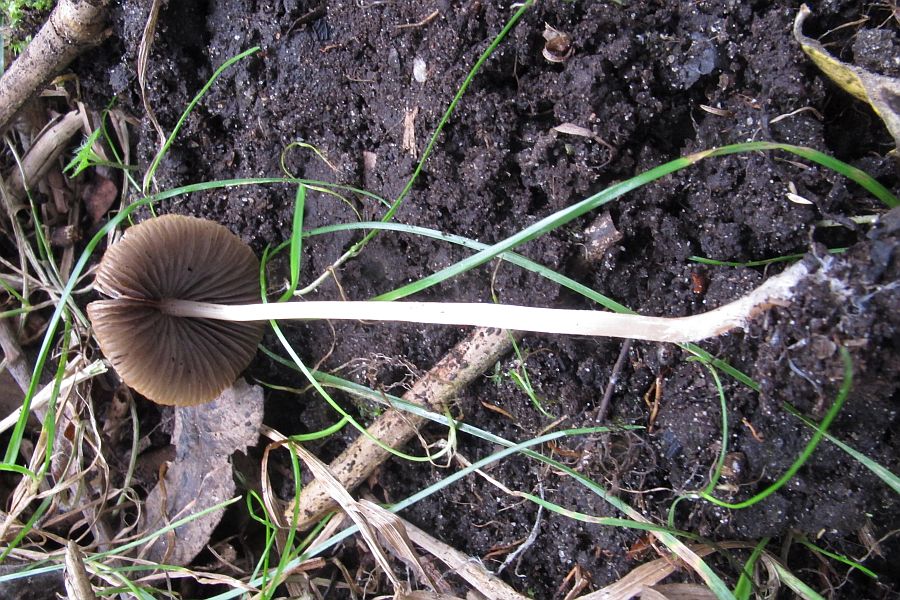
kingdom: Fungi
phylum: Basidiomycota
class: Agaricomycetes
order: Agaricales
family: Psathyrellaceae
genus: Psathyrella
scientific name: Psathyrella corrugis
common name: rødægget mørkhat
